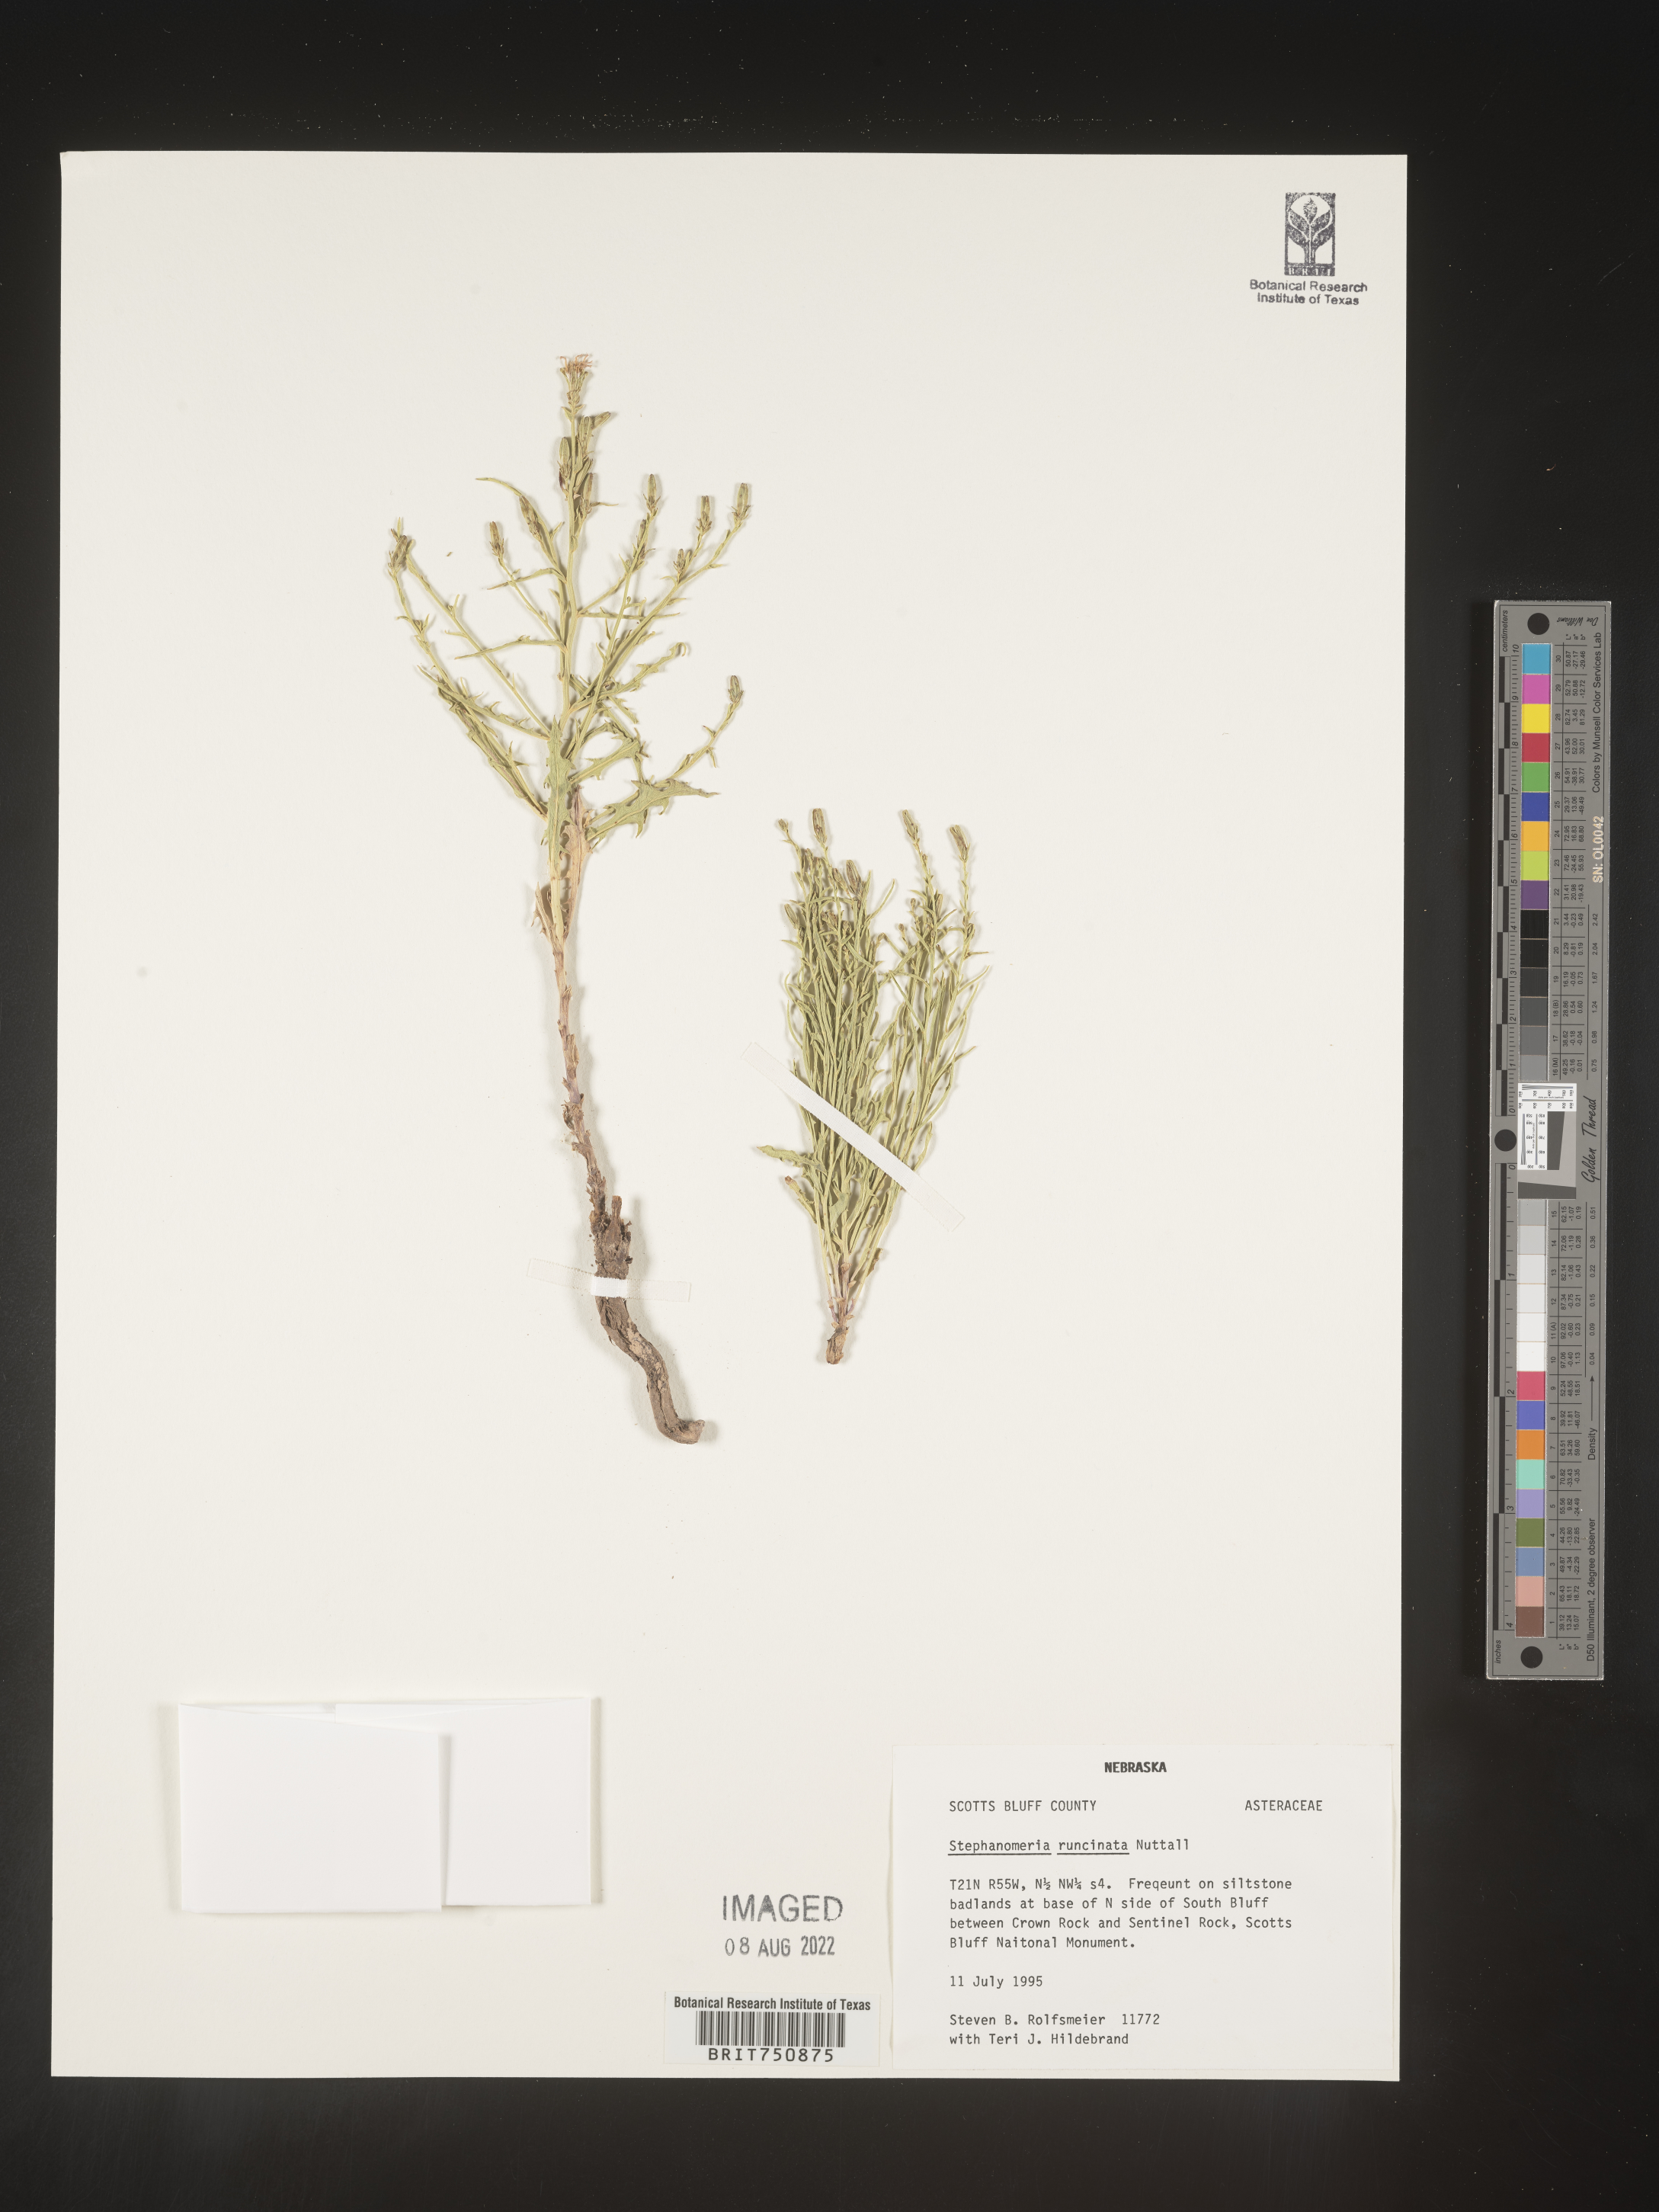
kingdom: Plantae
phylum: Tracheophyta
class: Magnoliopsida
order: Asterales
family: Asteraceae
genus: Stephanomeria
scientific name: Stephanomeria runcinata
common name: Desert wirelettuce
